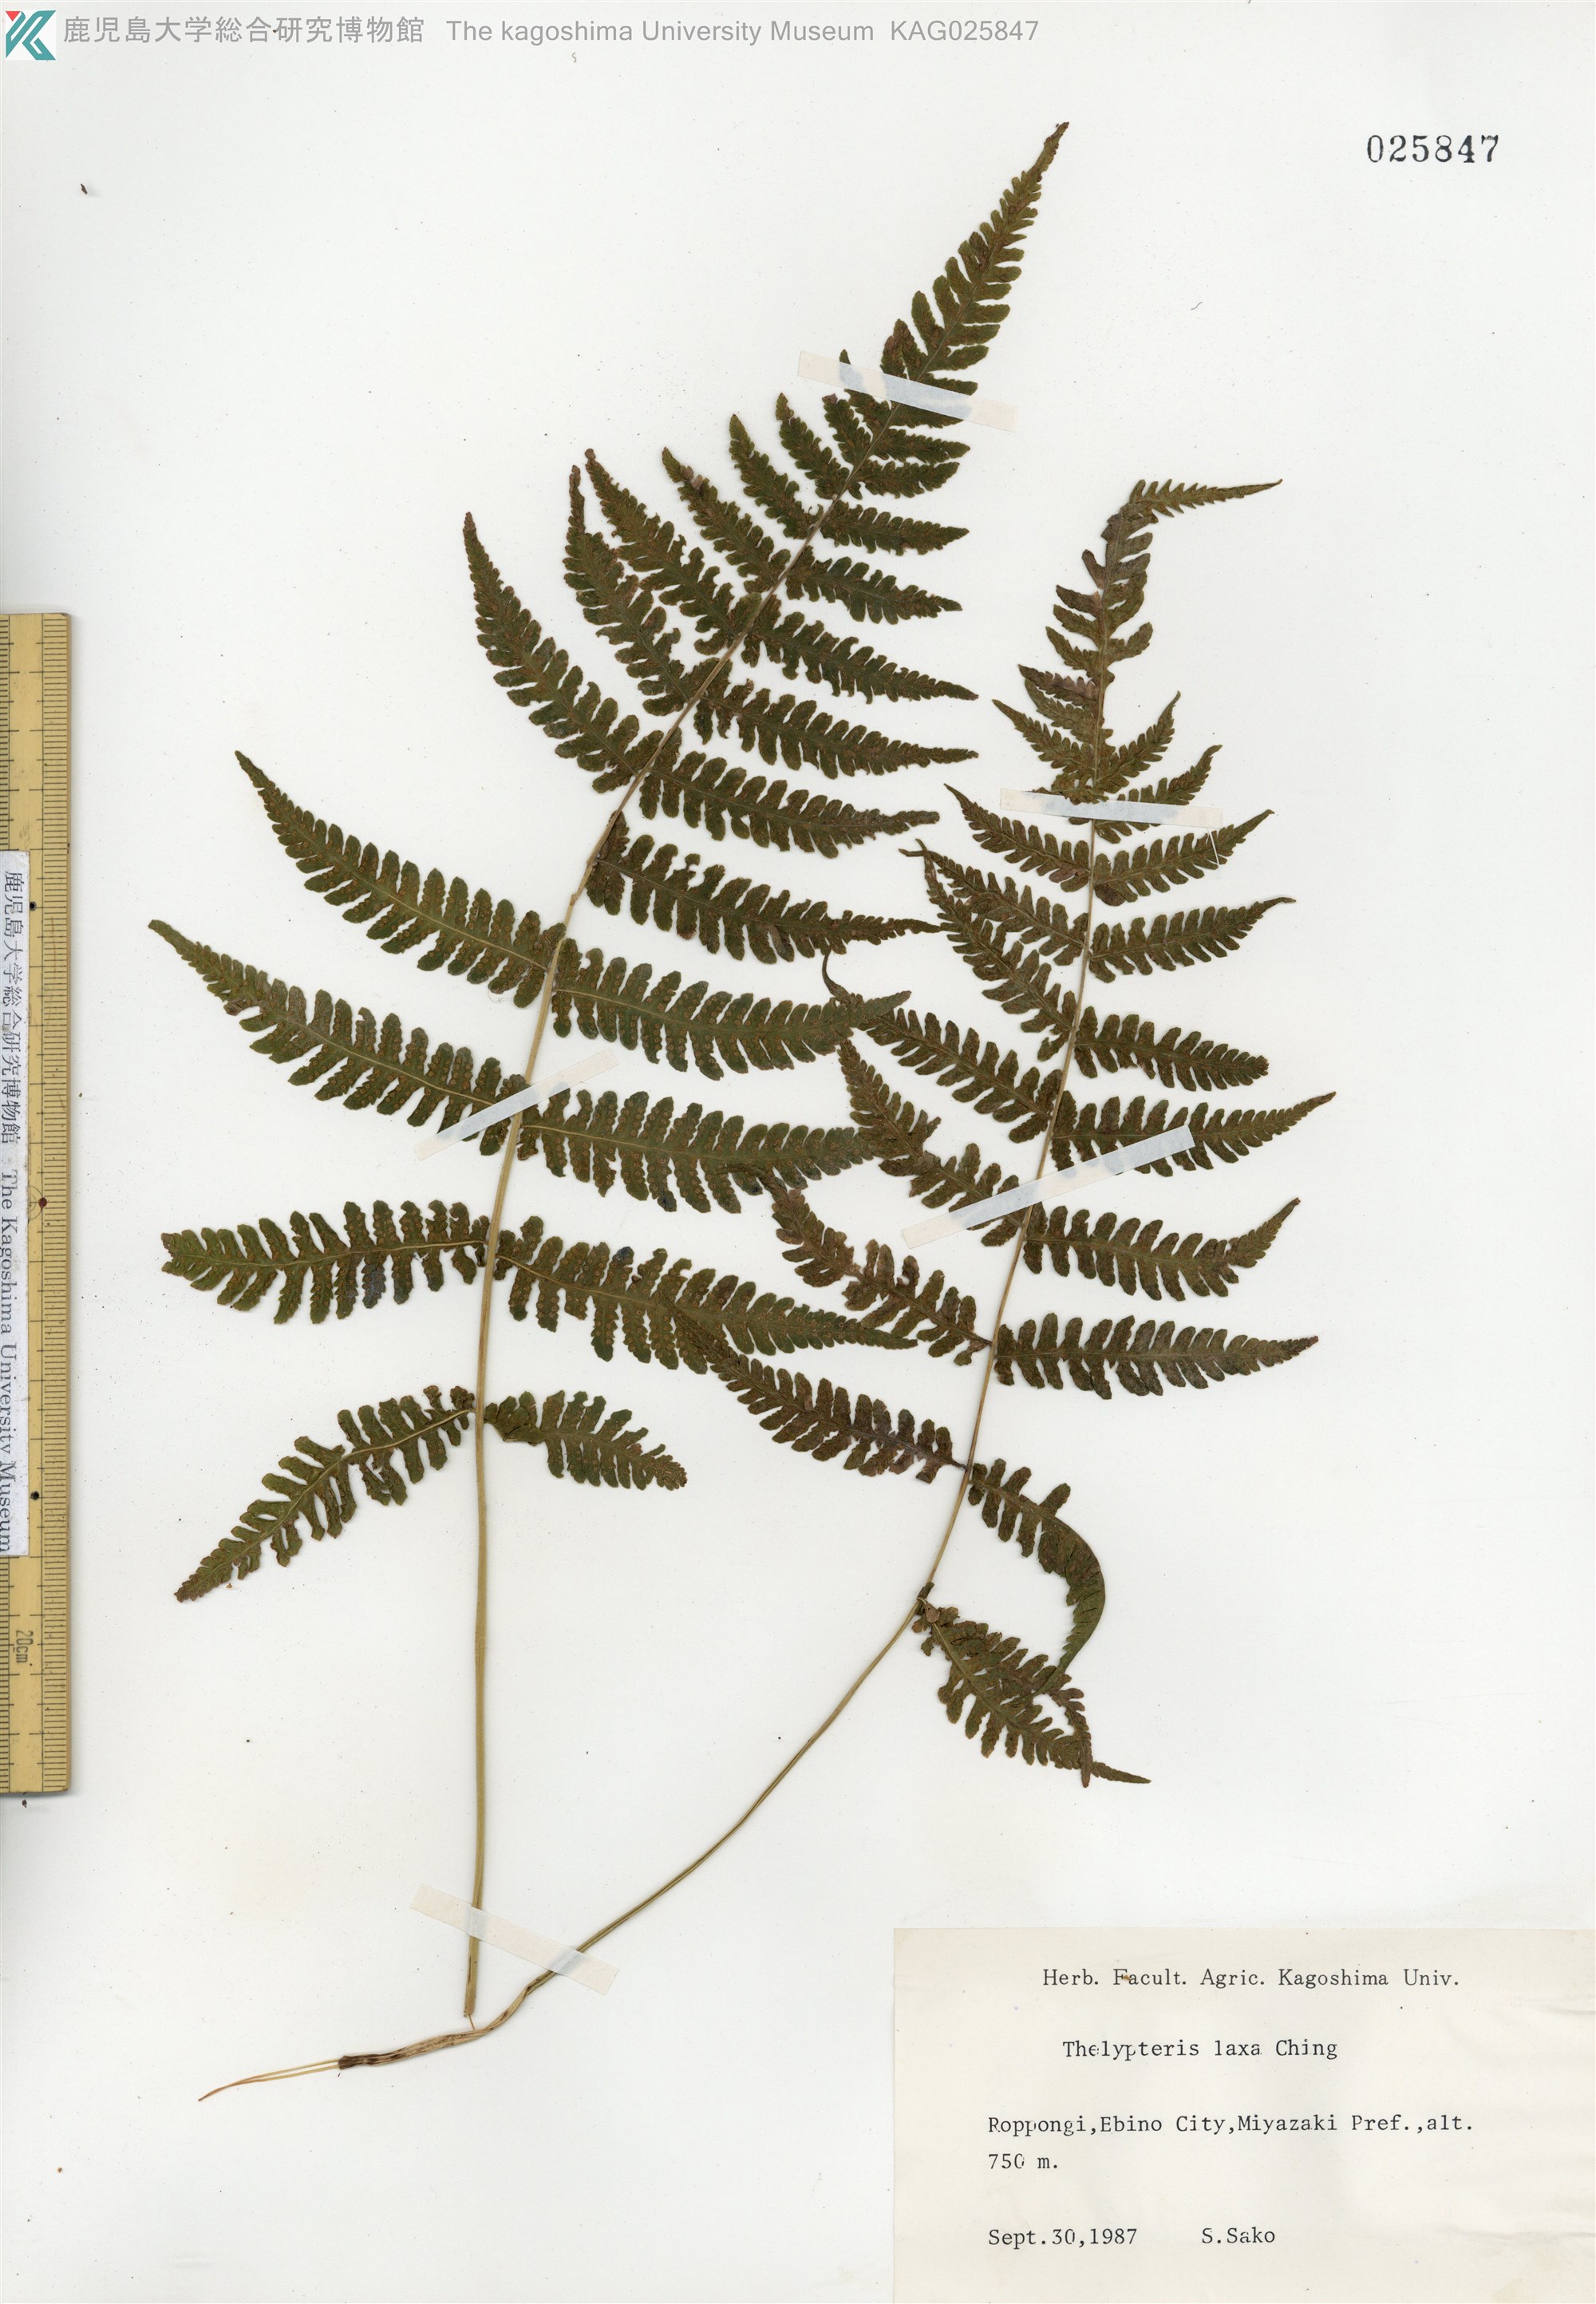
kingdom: Plantae
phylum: Tracheophyta
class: Polypodiopsida
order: Polypodiales
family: Thelypteridaceae
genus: Metathelypteris
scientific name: Metathelypteris laxa
